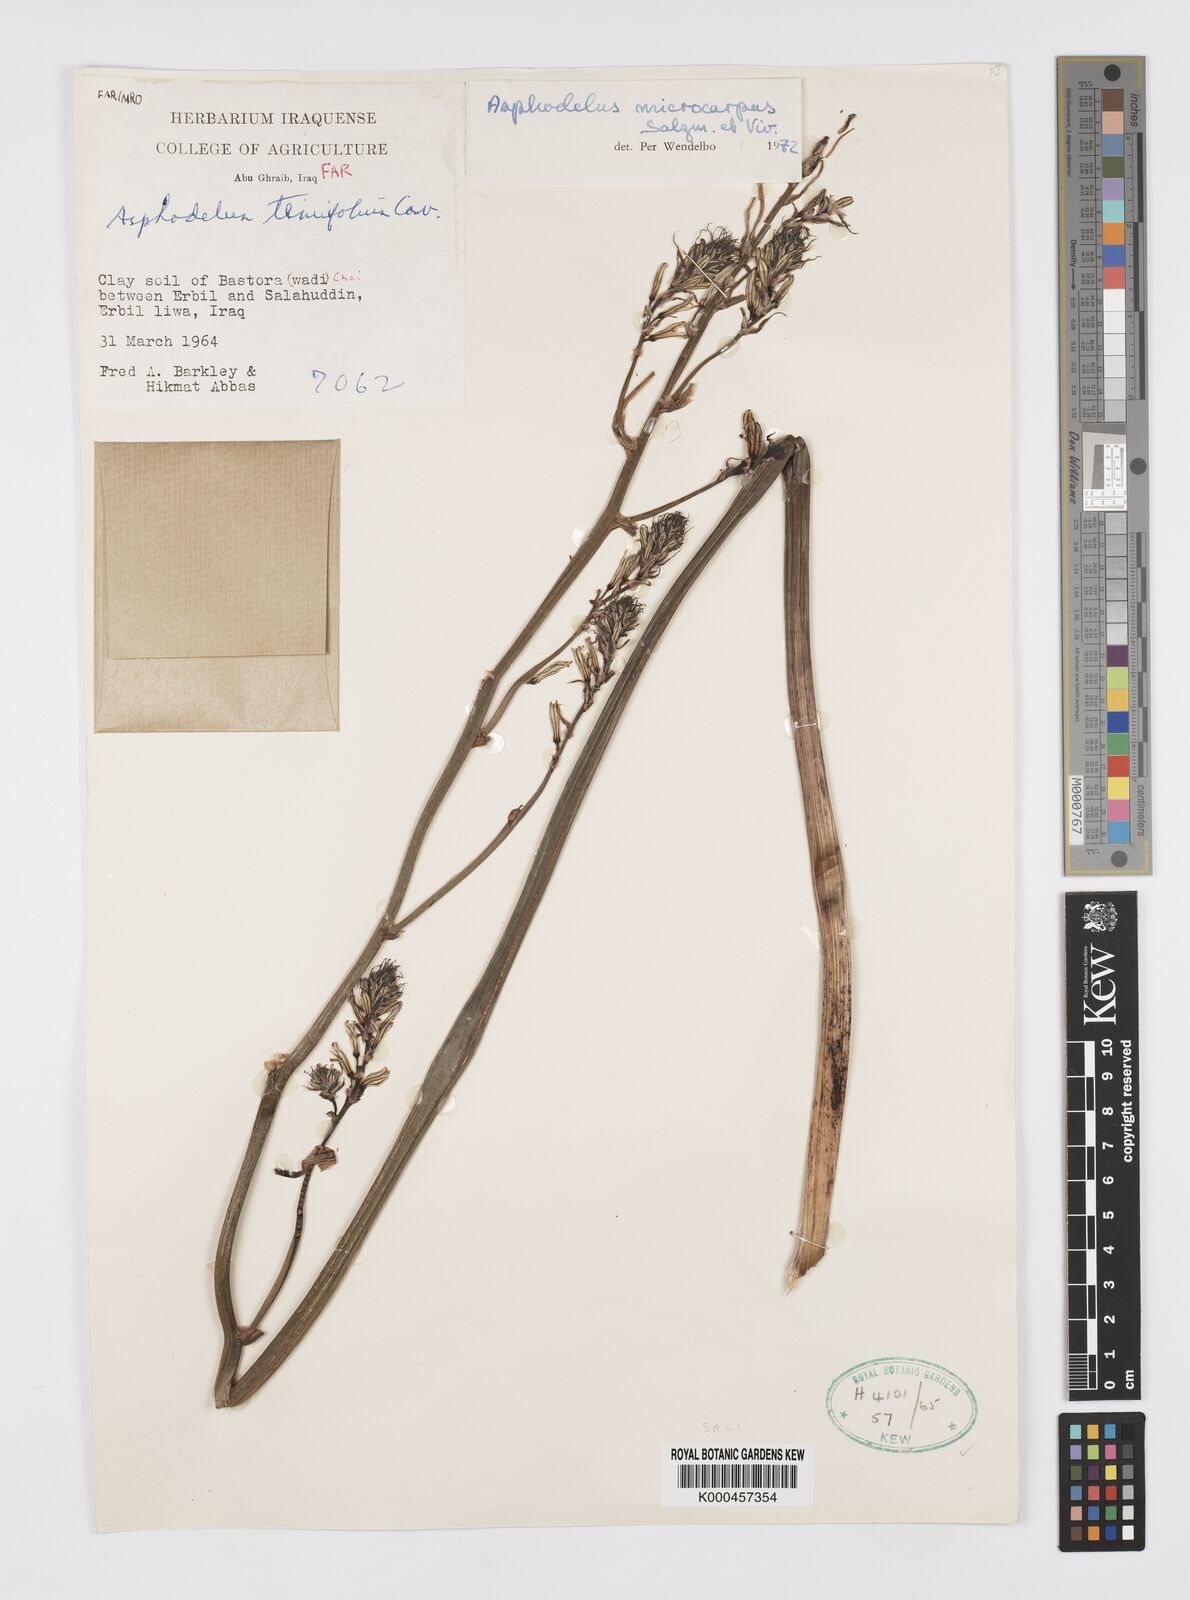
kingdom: Plantae
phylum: Tracheophyta
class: Liliopsida
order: Asparagales
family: Asphodelaceae
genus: Asphodelus
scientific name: Asphodelus aestivus
